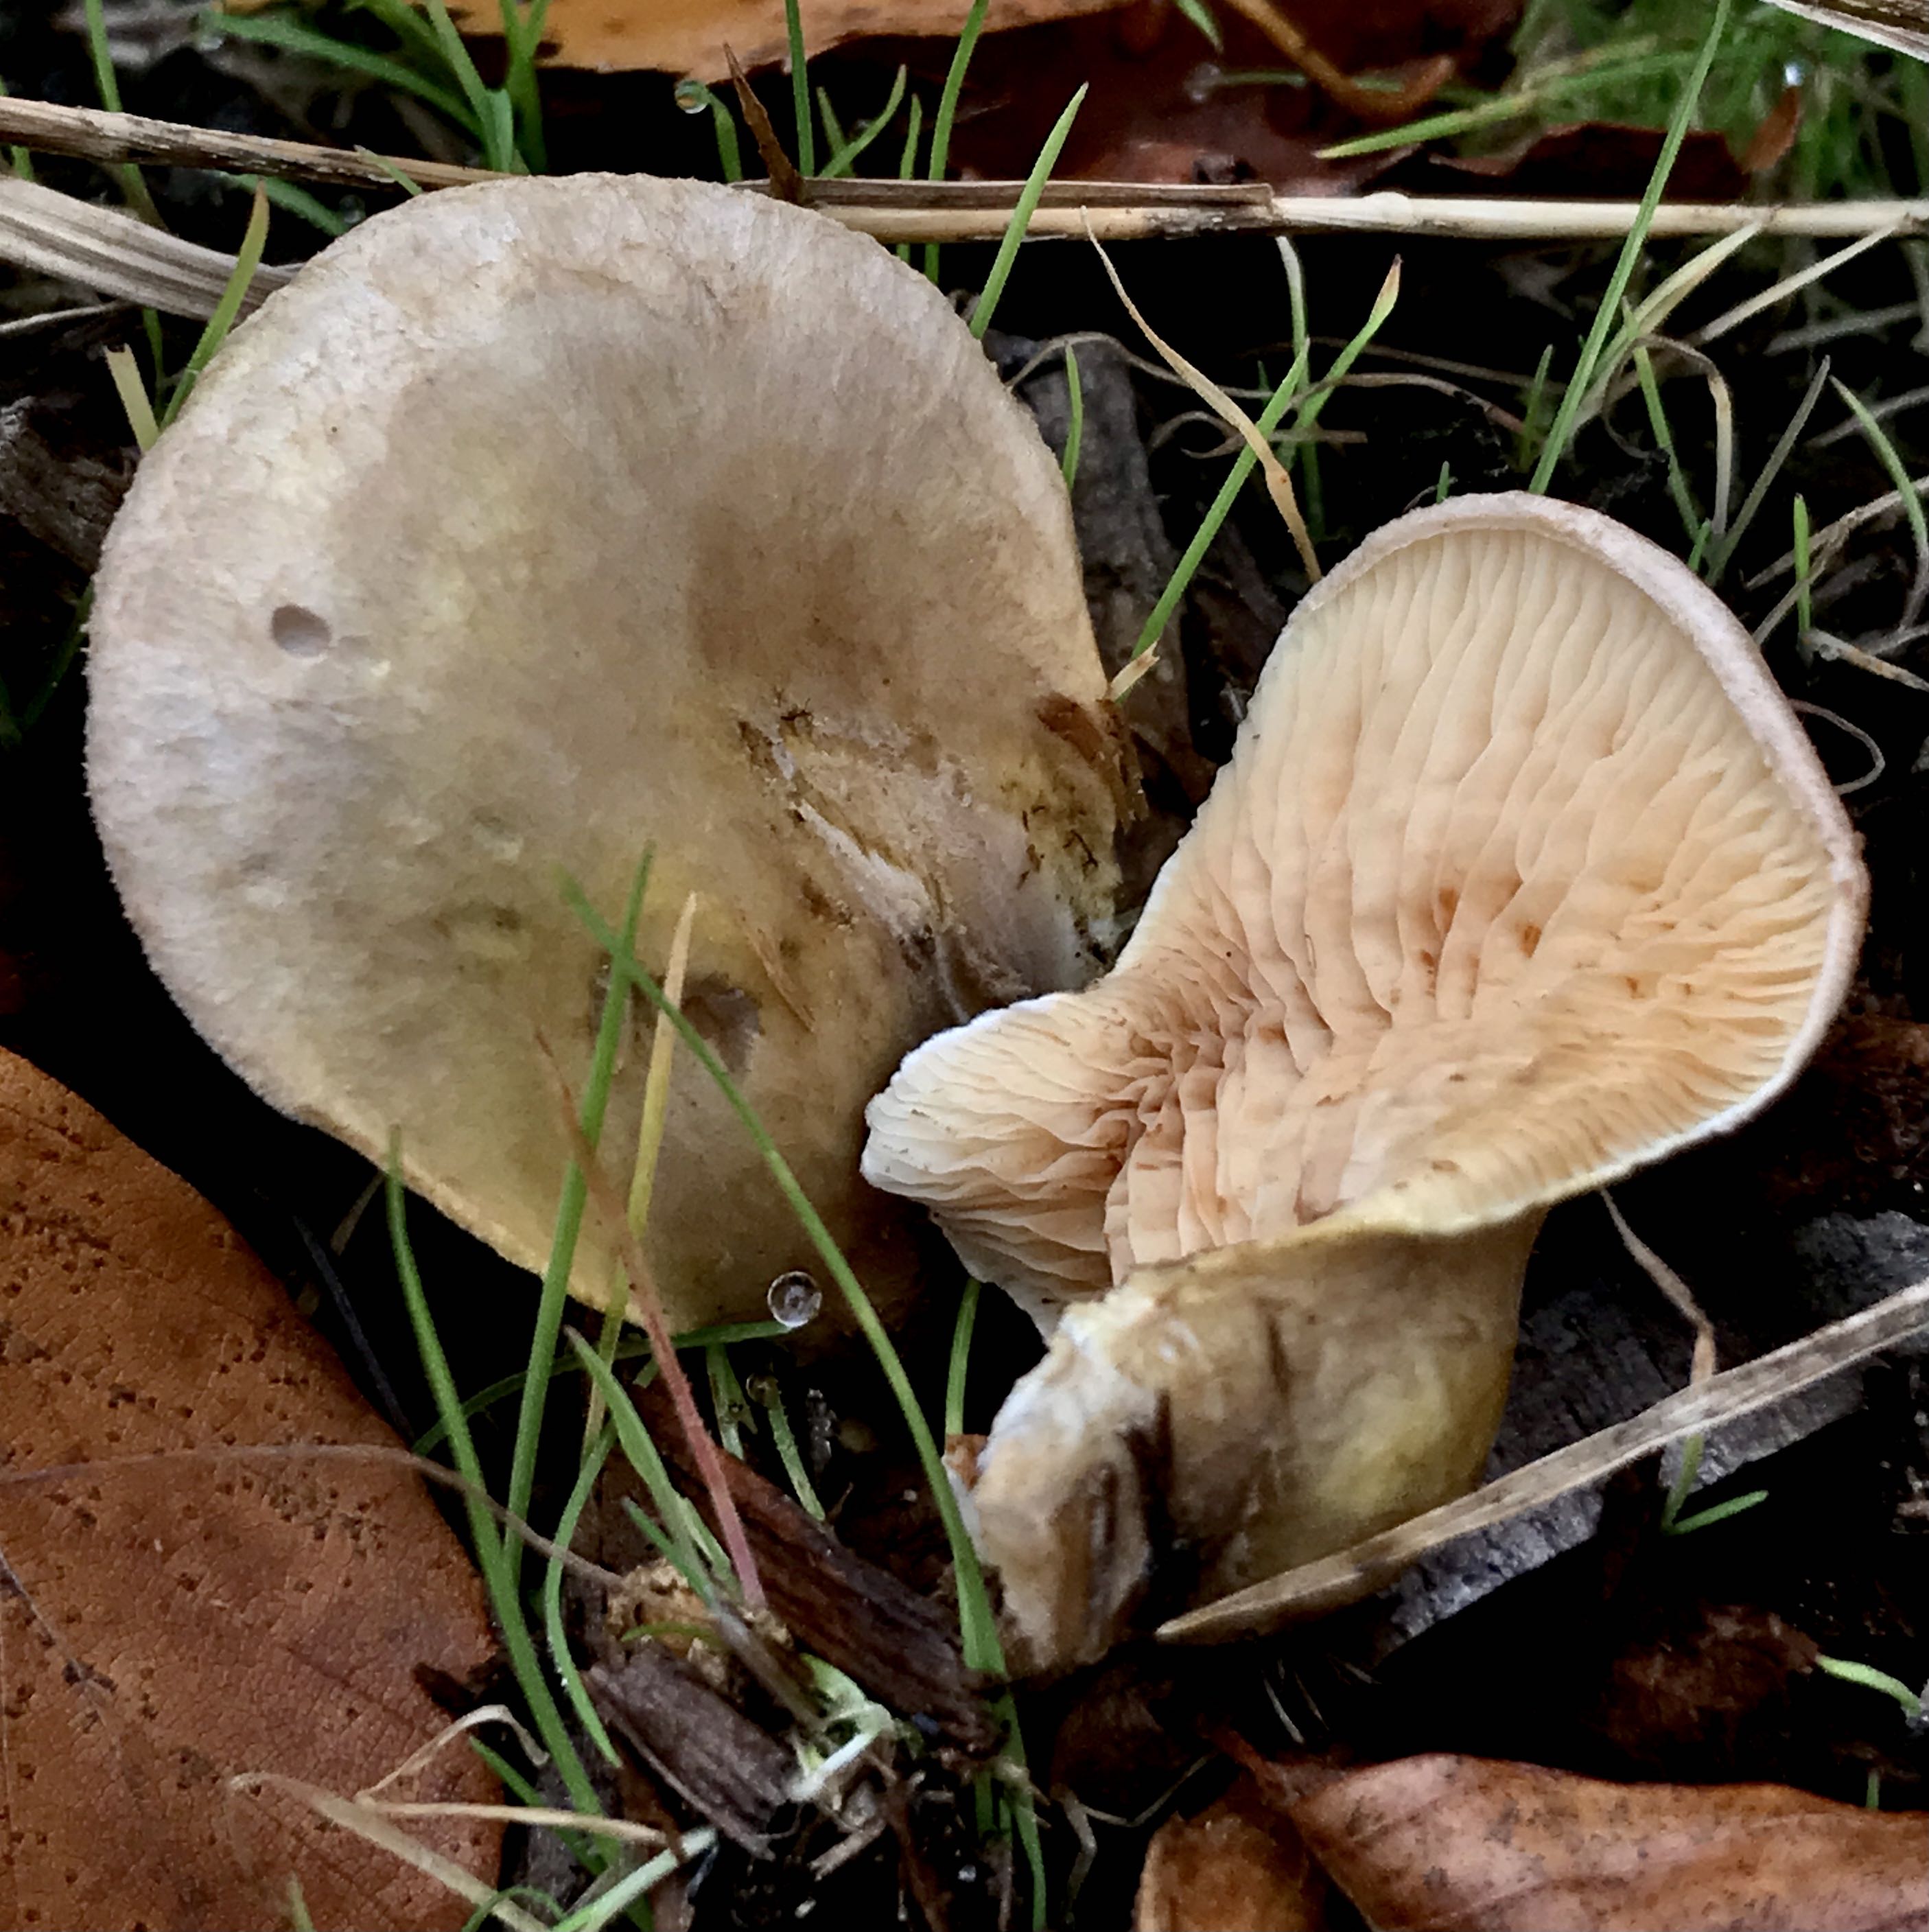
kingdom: Fungi
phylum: Basidiomycota
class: Agaricomycetes
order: Boletales
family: Tapinellaceae
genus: Tapinella
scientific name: Tapinella panuoides
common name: tømmer-viftesvamp
